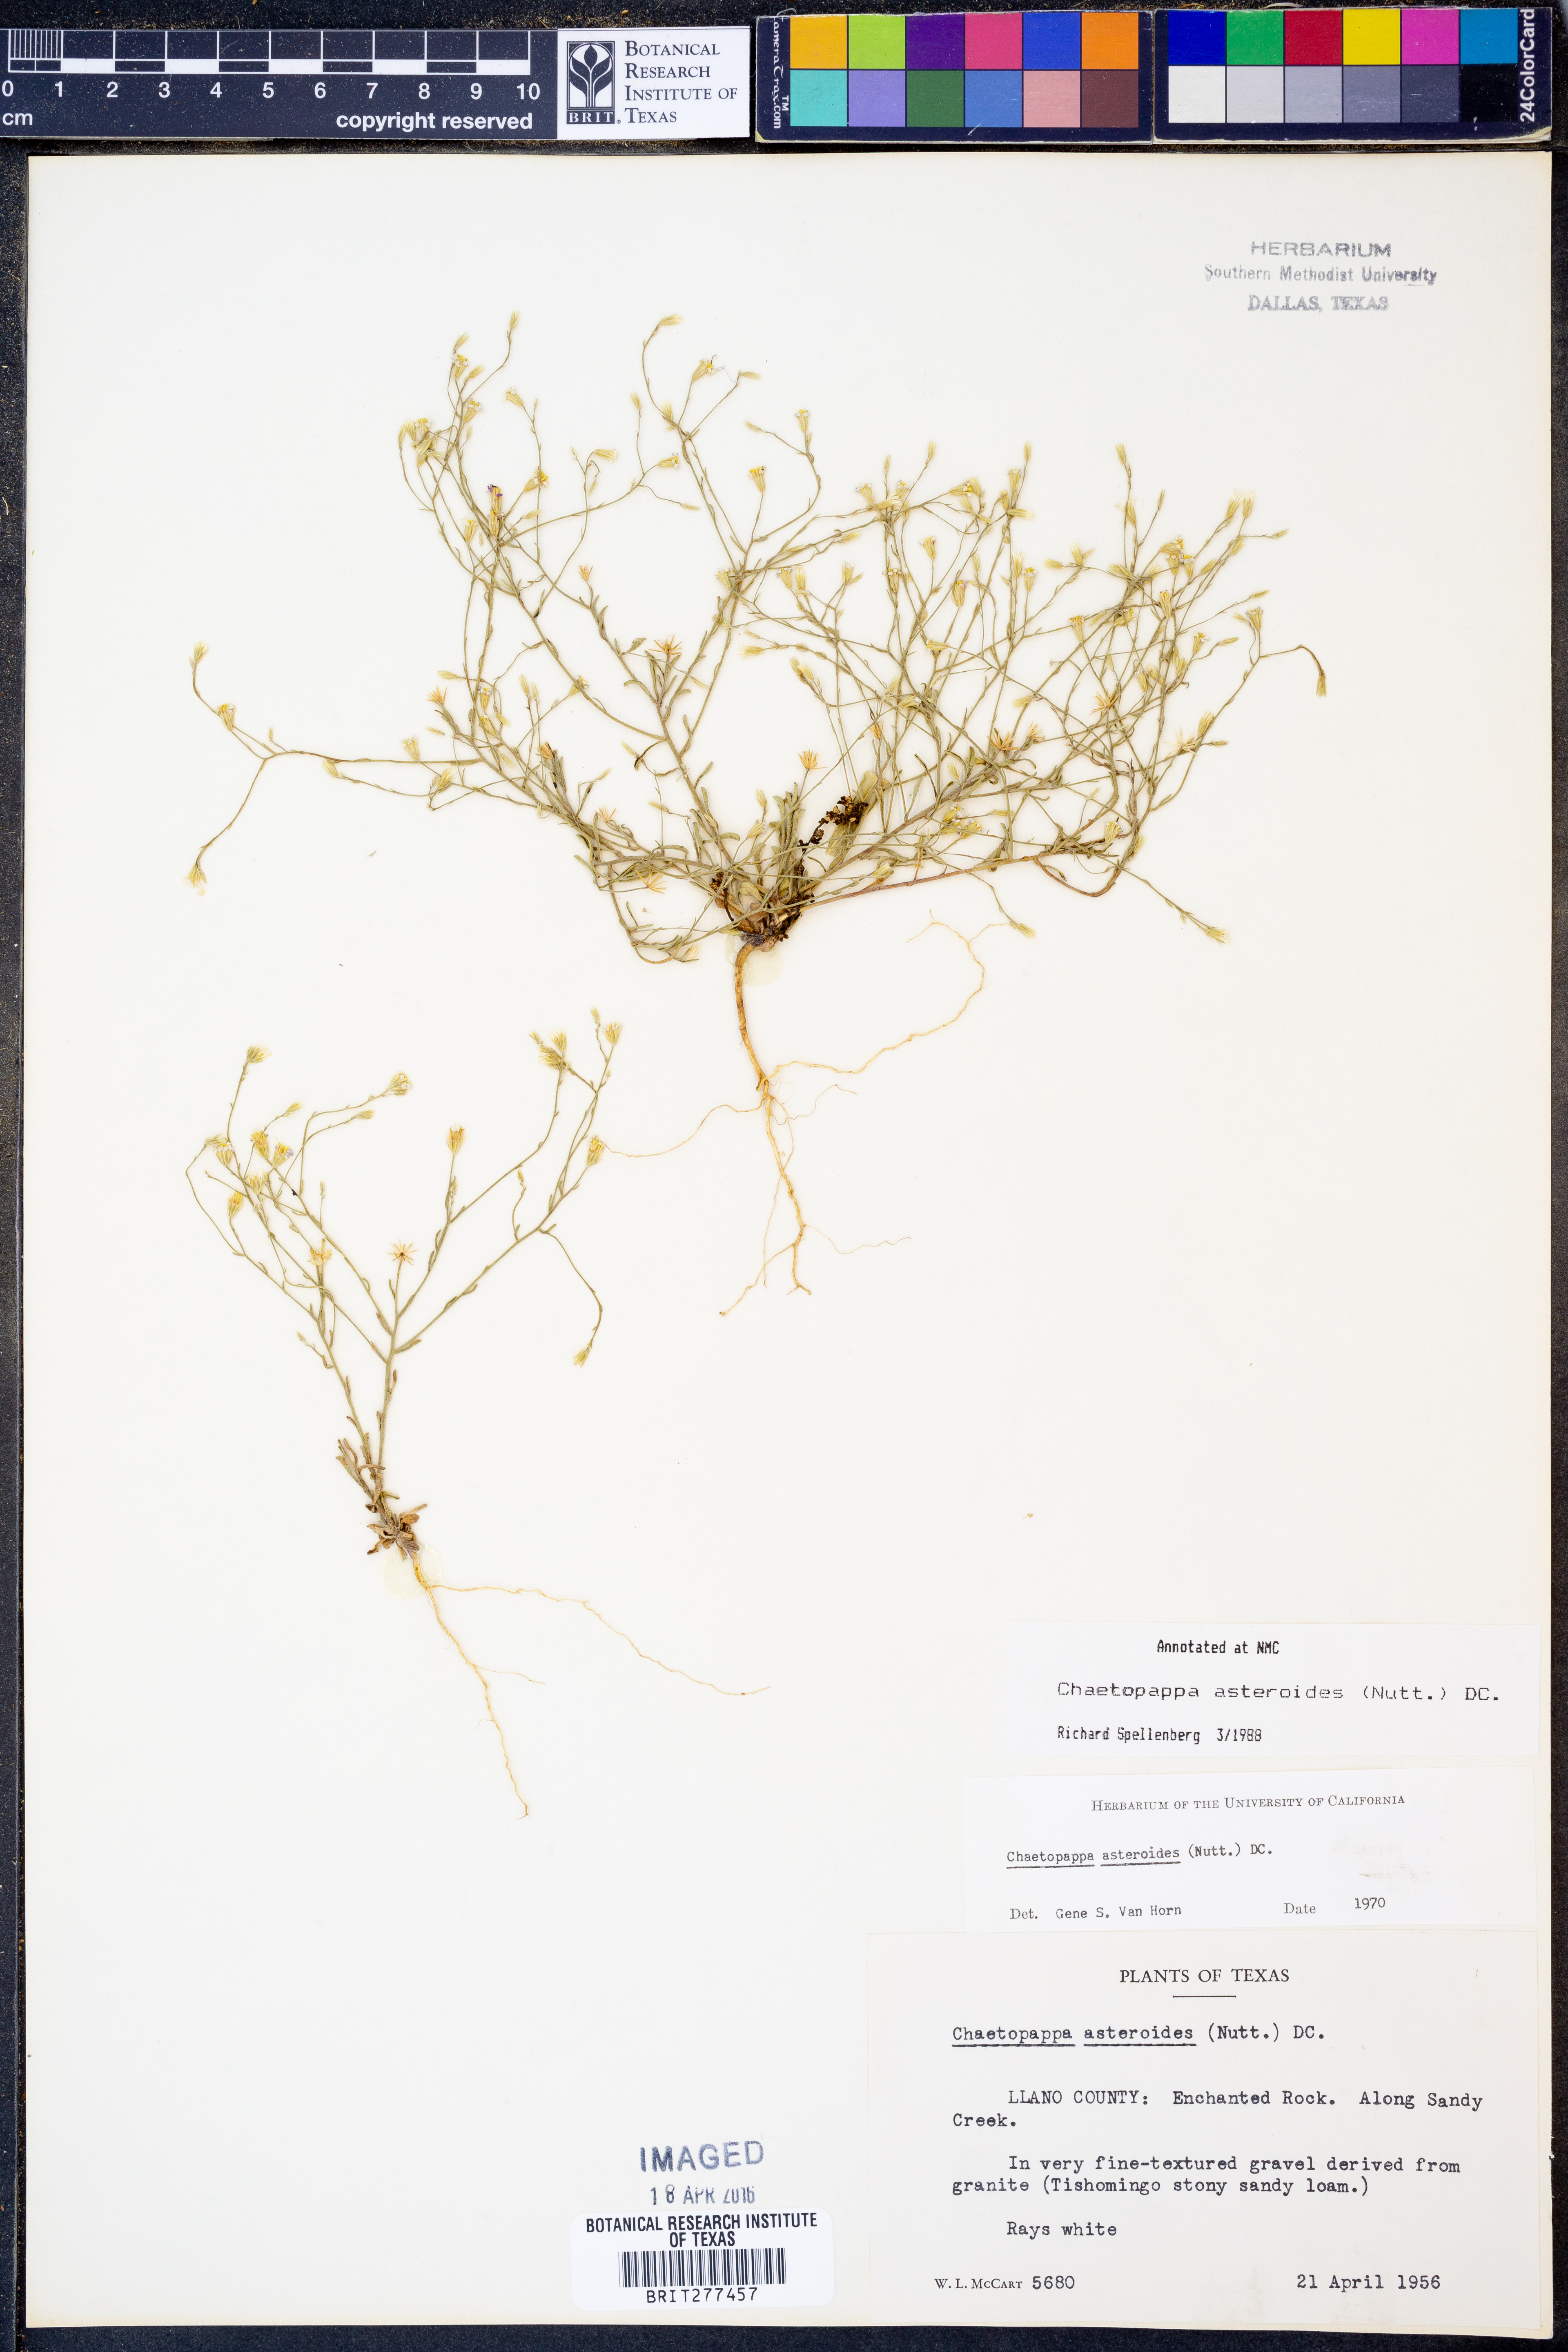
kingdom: Plantae
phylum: Tracheophyta
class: Magnoliopsida
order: Asterales
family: Asteraceae
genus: Chaetopappa
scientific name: Chaetopappa asteroides
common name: Tiny lazy daisy
